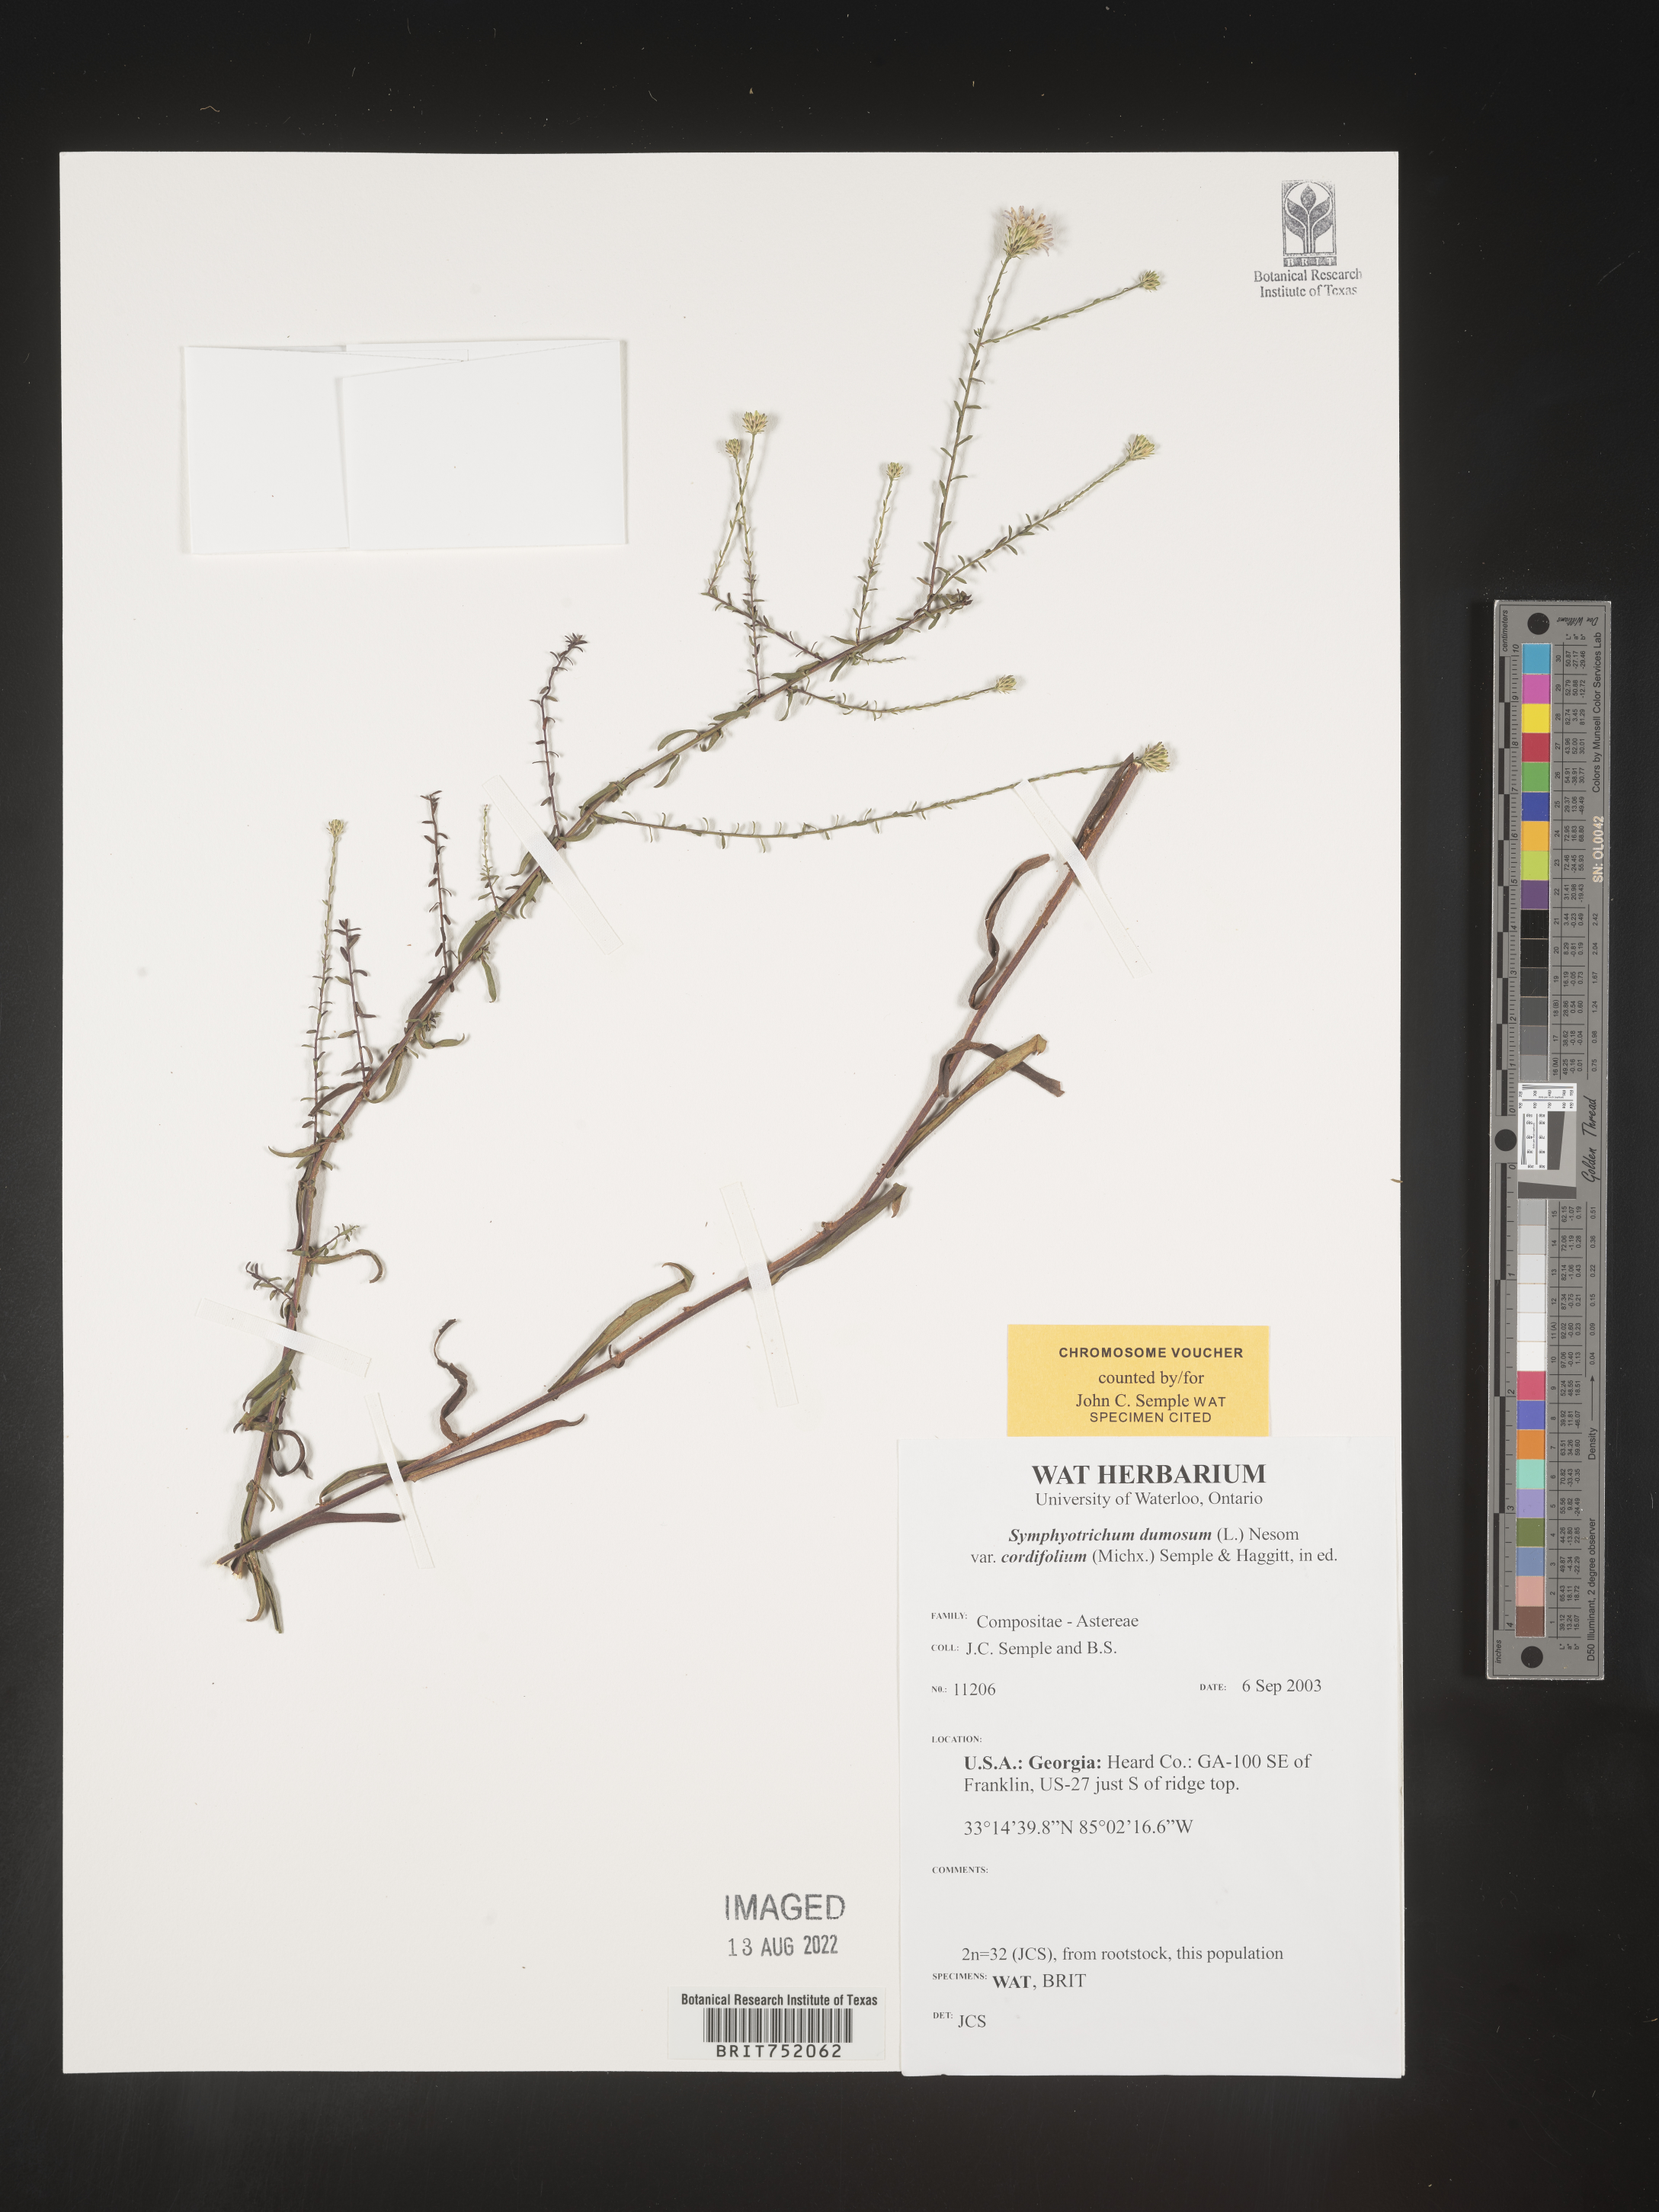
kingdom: Plantae
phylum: Tracheophyta
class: Magnoliopsida
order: Asterales
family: Asteraceae
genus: Symphyotrichum
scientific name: Symphyotrichum dumosum
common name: Bushy aster
